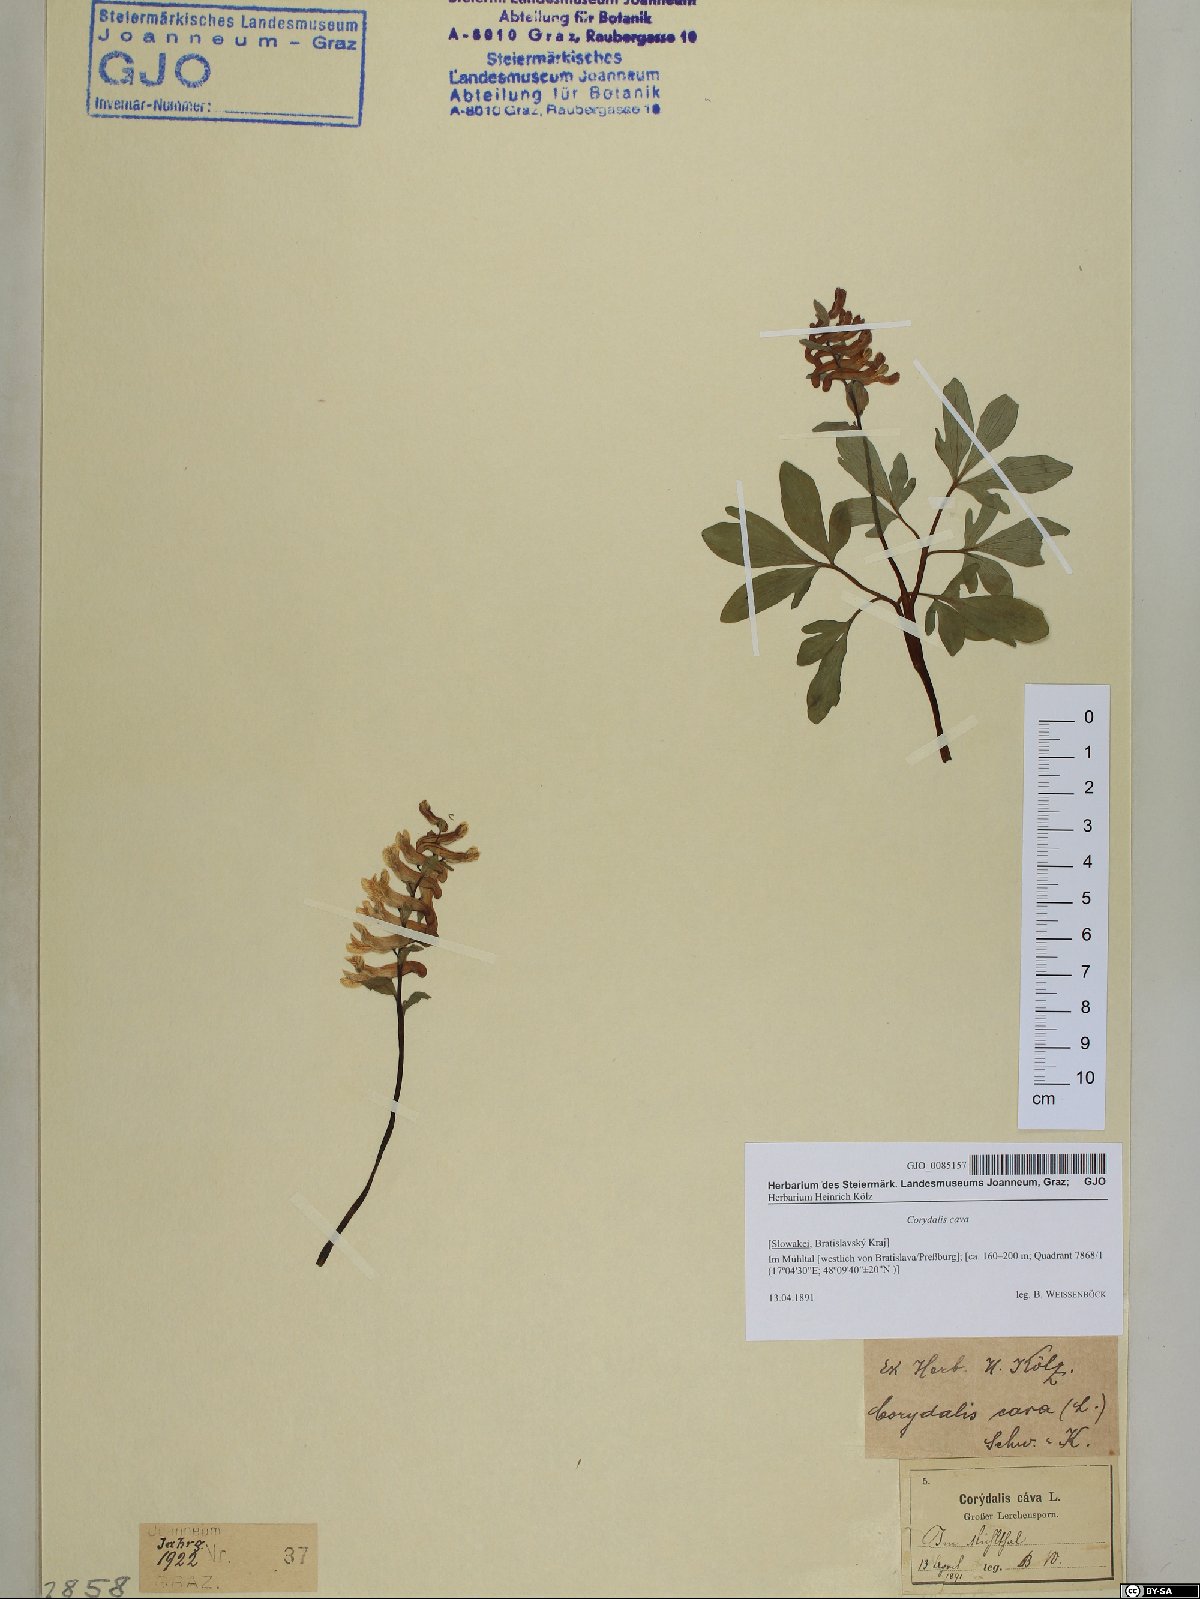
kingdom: Plantae
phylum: Tracheophyta
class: Magnoliopsida
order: Ranunculales
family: Papaveraceae
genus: Corydalis
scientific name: Corydalis cava
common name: Hollowroot
